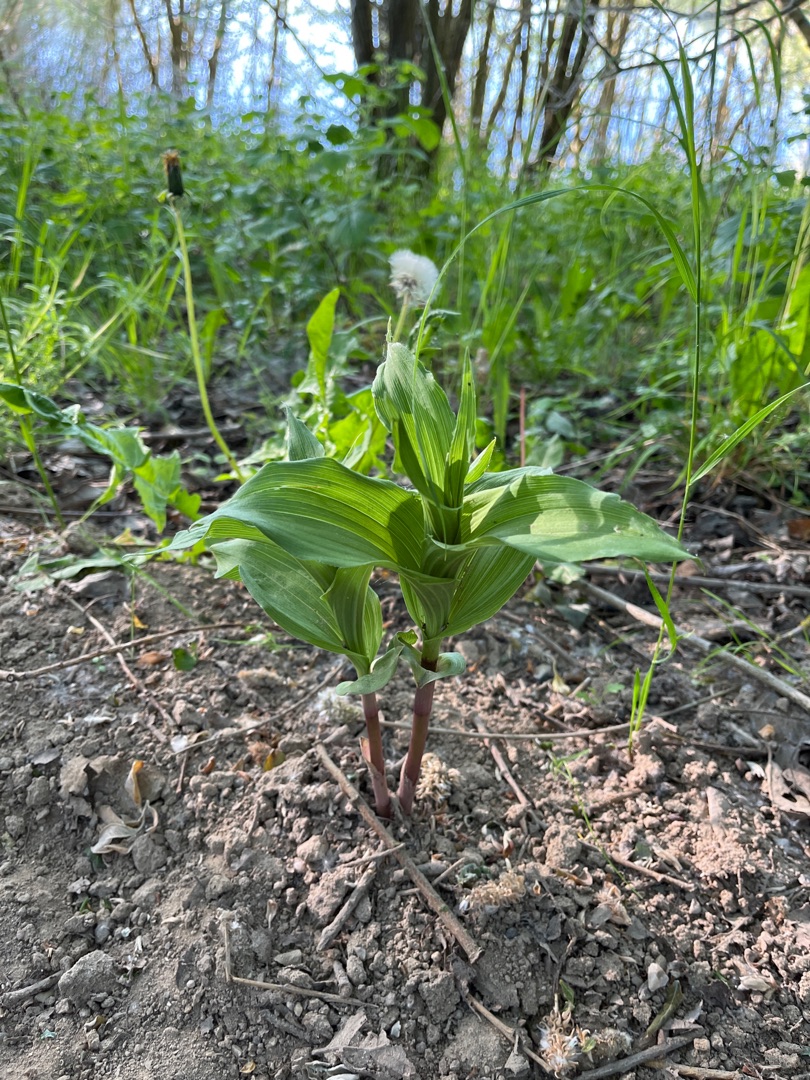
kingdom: Plantae
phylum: Tracheophyta
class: Liliopsida
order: Asparagales
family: Orchidaceae
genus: Epipactis
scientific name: Epipactis helleborine
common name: Skov-hullæbe
